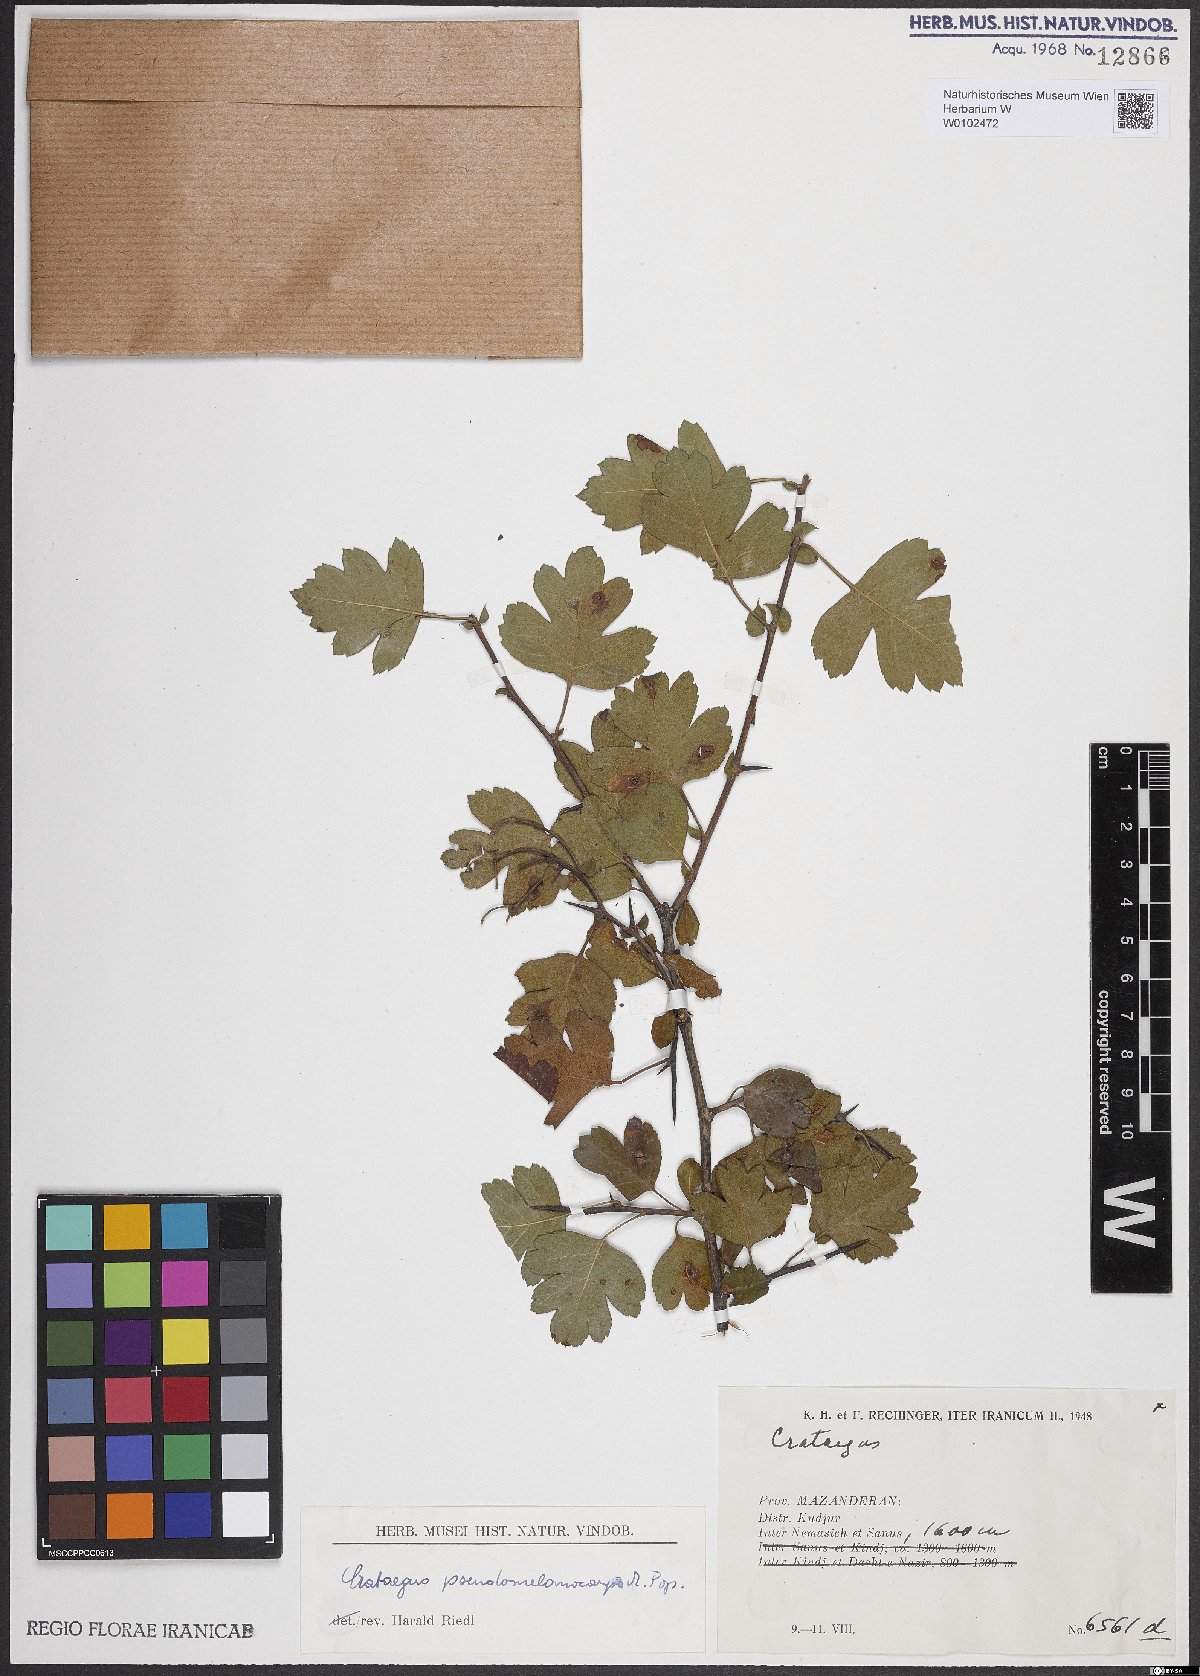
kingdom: Plantae
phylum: Tracheophyta
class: Magnoliopsida
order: Rosales
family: Rosaceae
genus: Crataegus
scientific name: Crataegus pentagyna
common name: Small-flowered black hawthorn
